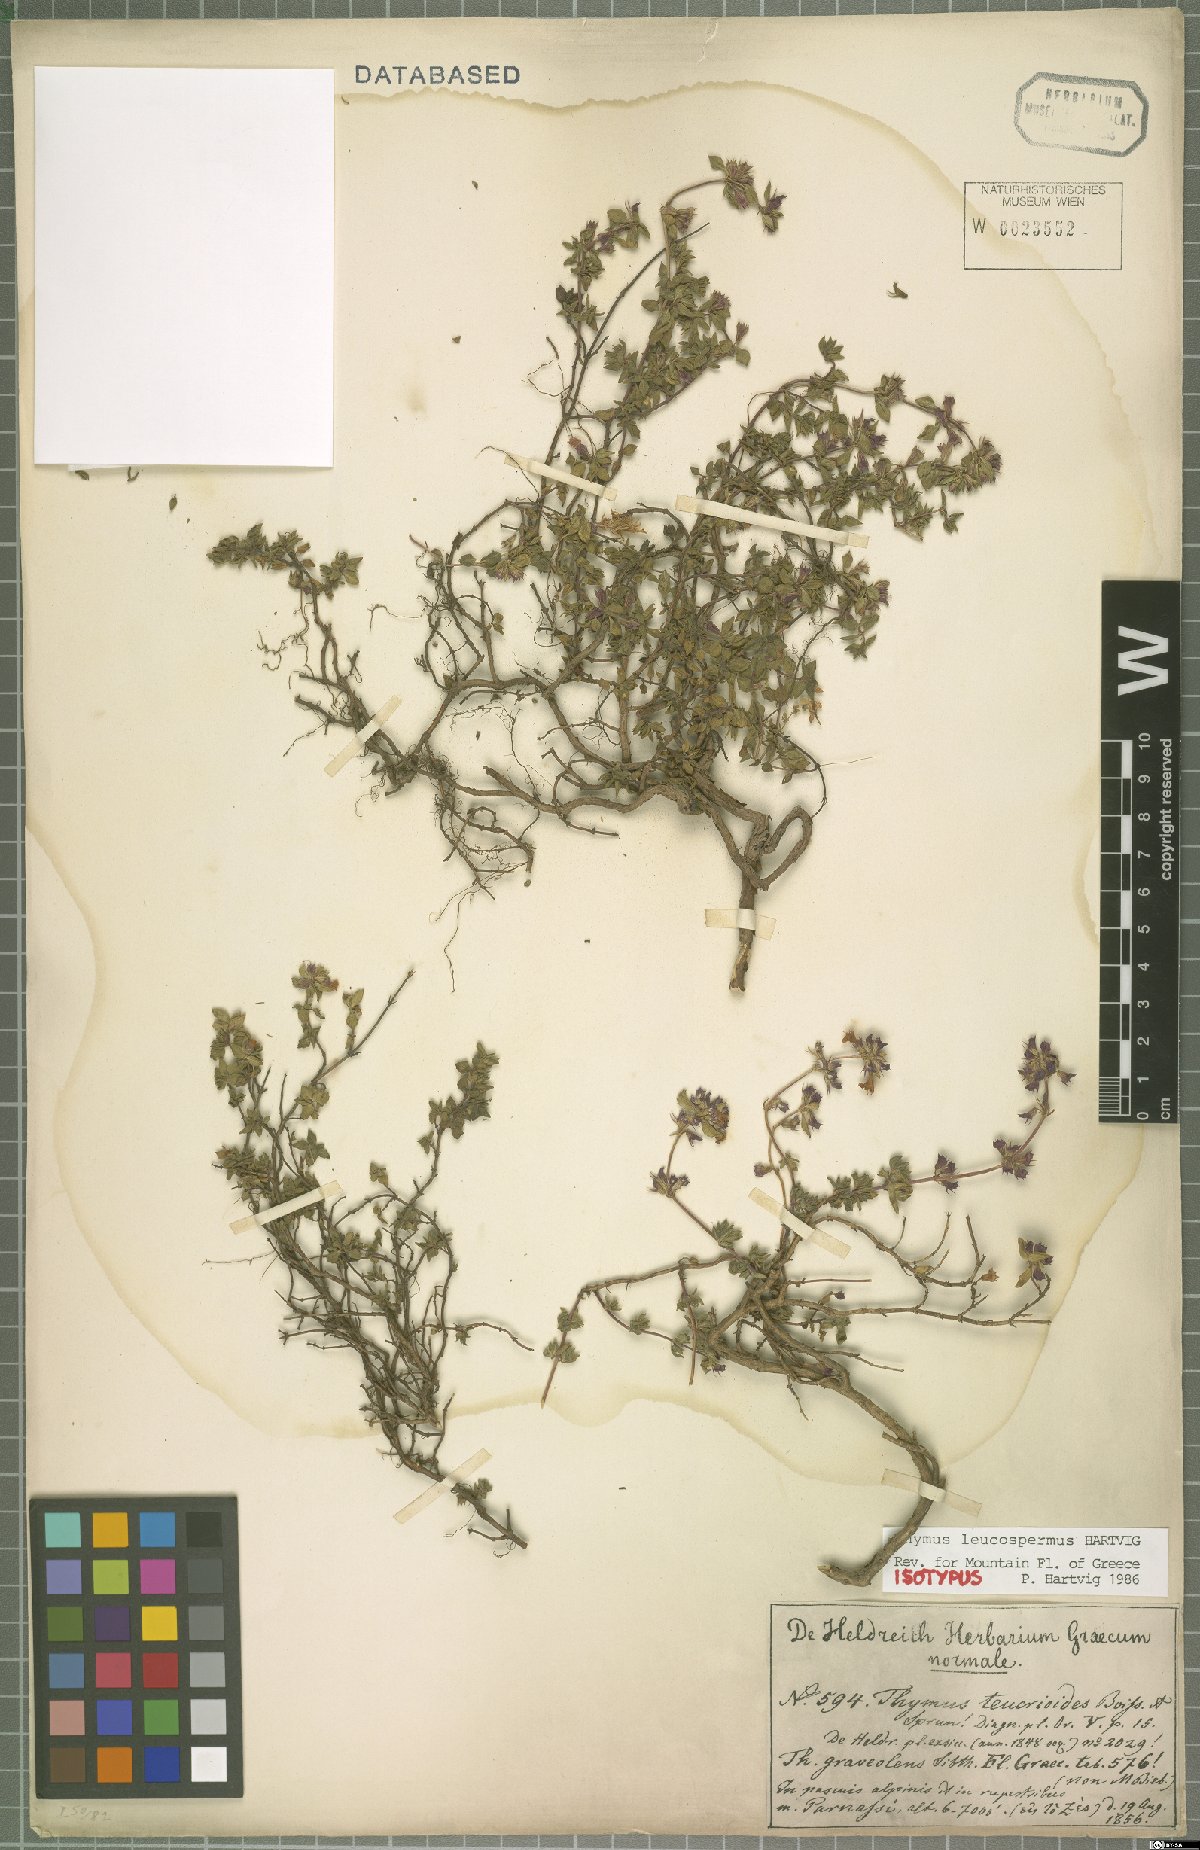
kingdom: Plantae
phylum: Tracheophyta
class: Magnoliopsida
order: Lamiales
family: Lamiaceae
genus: Thymus
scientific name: Thymus leucospermus
